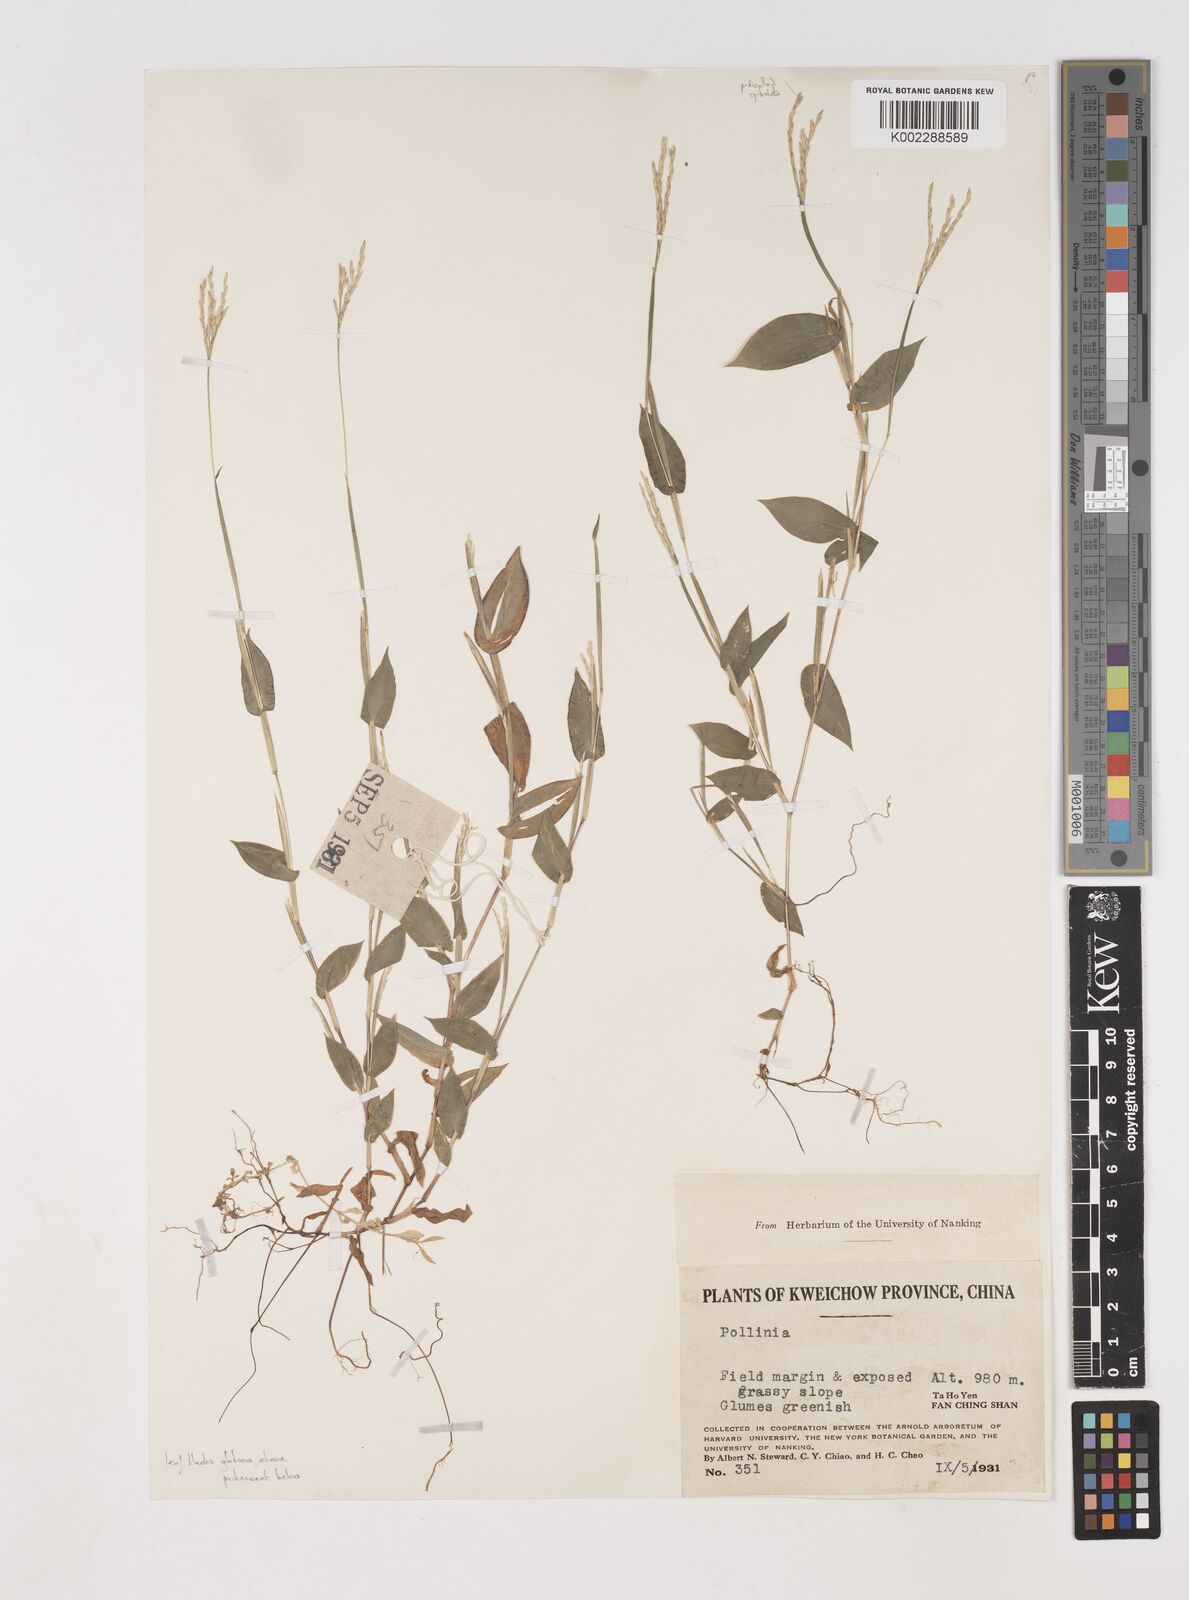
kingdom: Plantae
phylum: Tracheophyta
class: Liliopsida
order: Poales
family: Poaceae
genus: Arthraxon
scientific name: Arthraxon hispidus
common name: Small carpgrass
